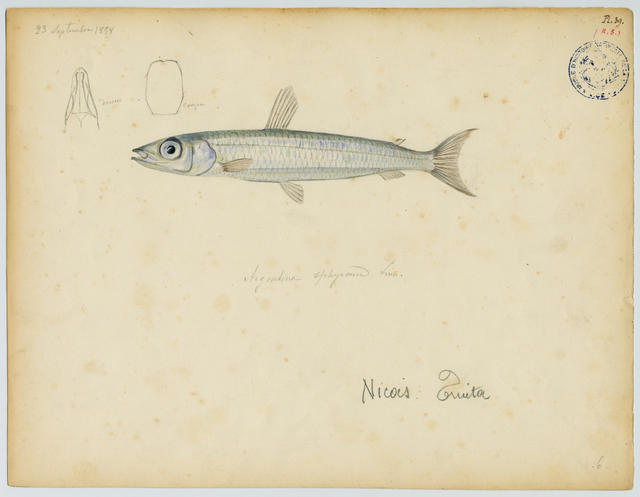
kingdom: Animalia
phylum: Chordata
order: Osmeriformes
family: Argentinidae
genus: Argentina
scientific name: Argentina sphyraena
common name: Argentine
